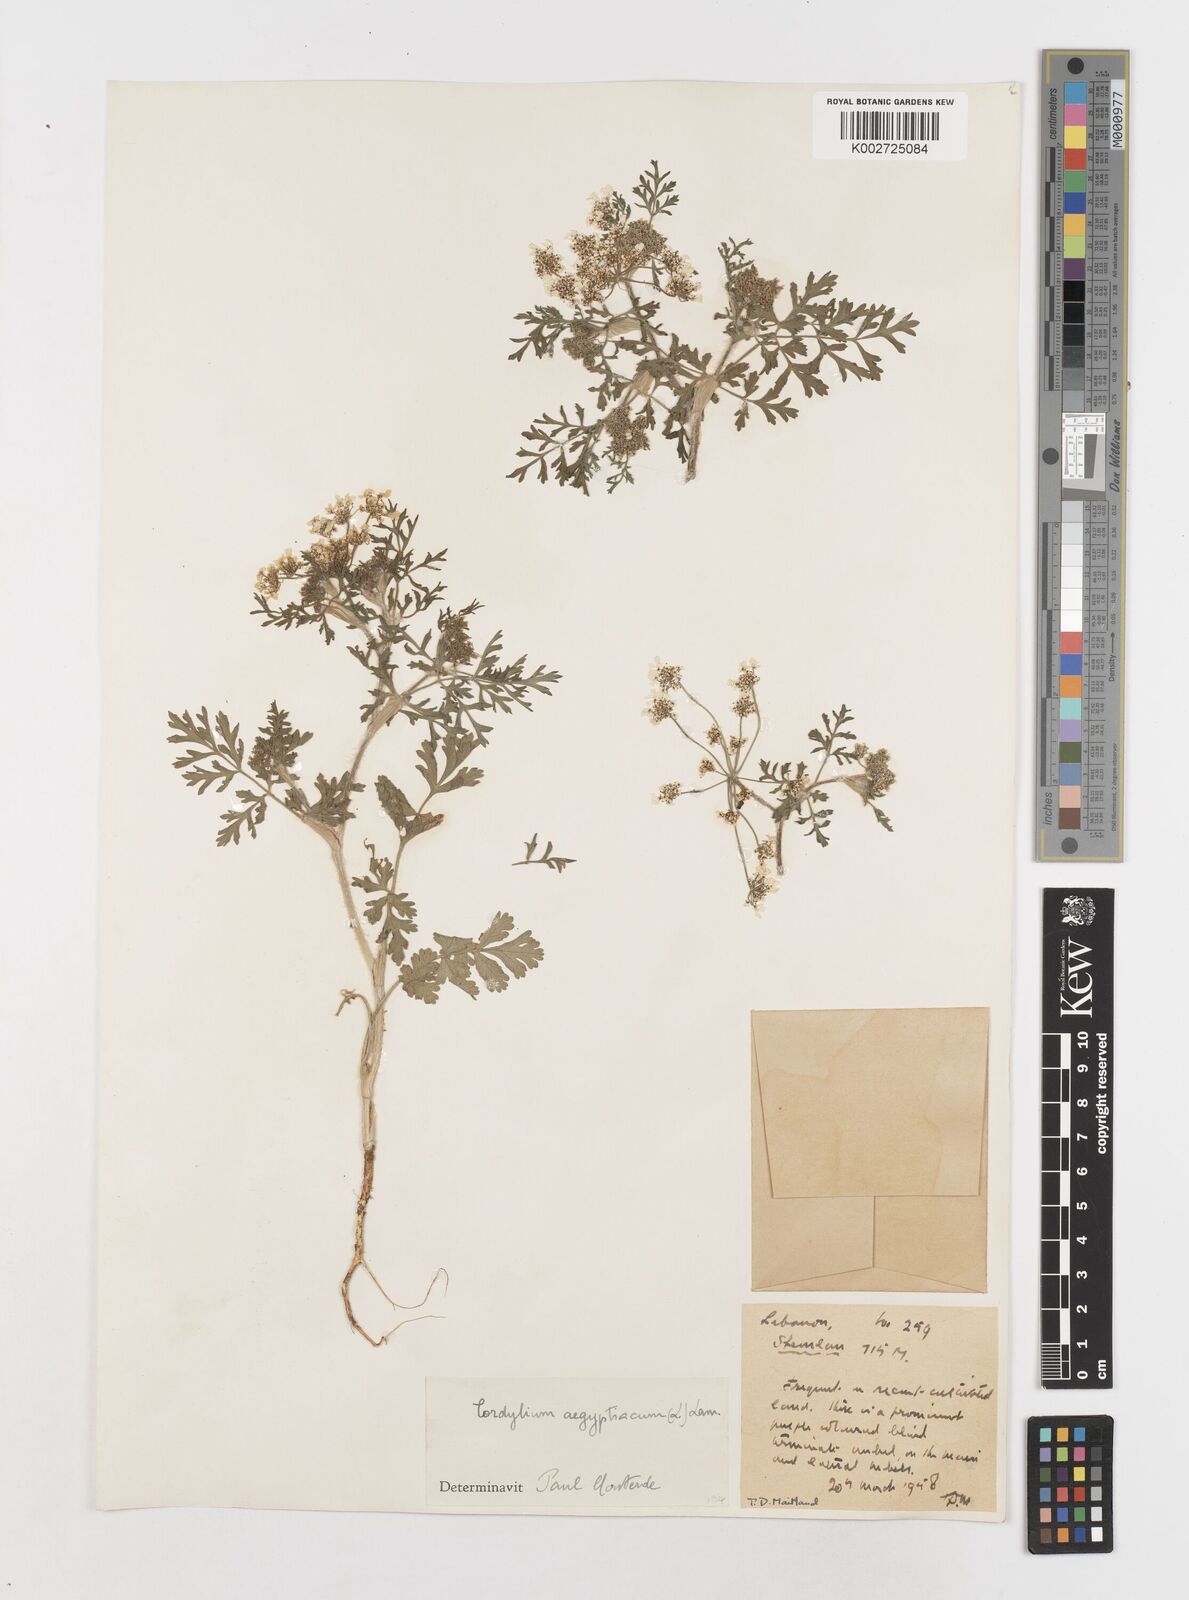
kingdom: Plantae
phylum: Tracheophyta
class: Magnoliopsida
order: Apiales
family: Apiaceae
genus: Tordylium
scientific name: Tordylium aegyptiacum
